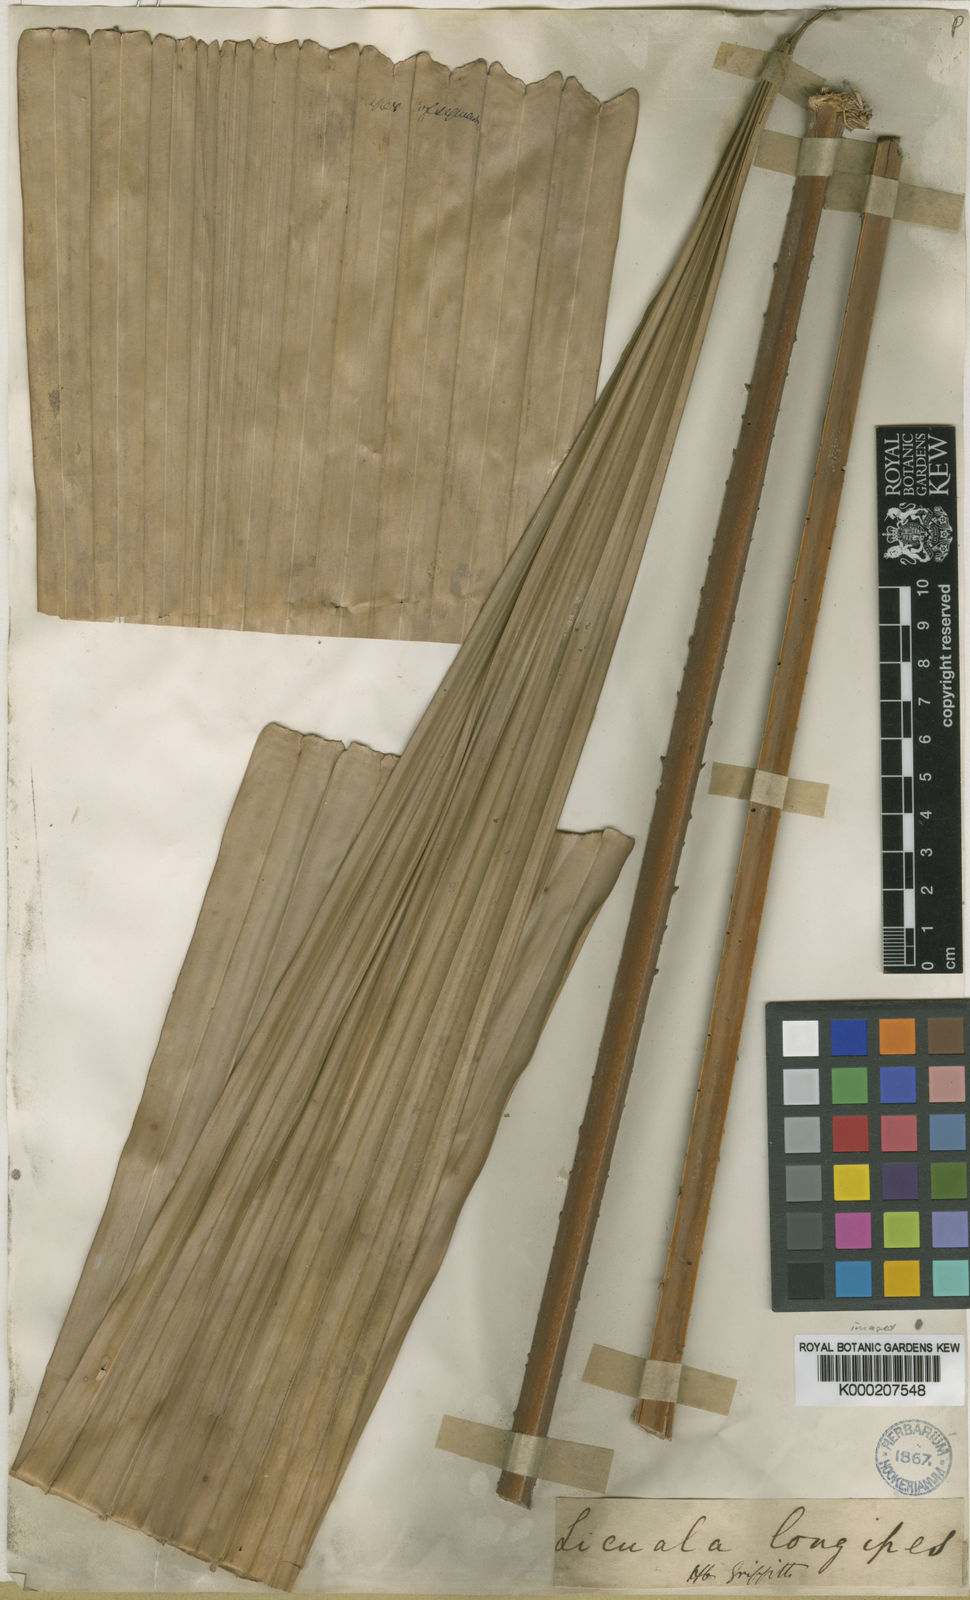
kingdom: Plantae
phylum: Tracheophyta
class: Liliopsida
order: Arecales
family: Arecaceae
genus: Licuala
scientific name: Licuala longipes
